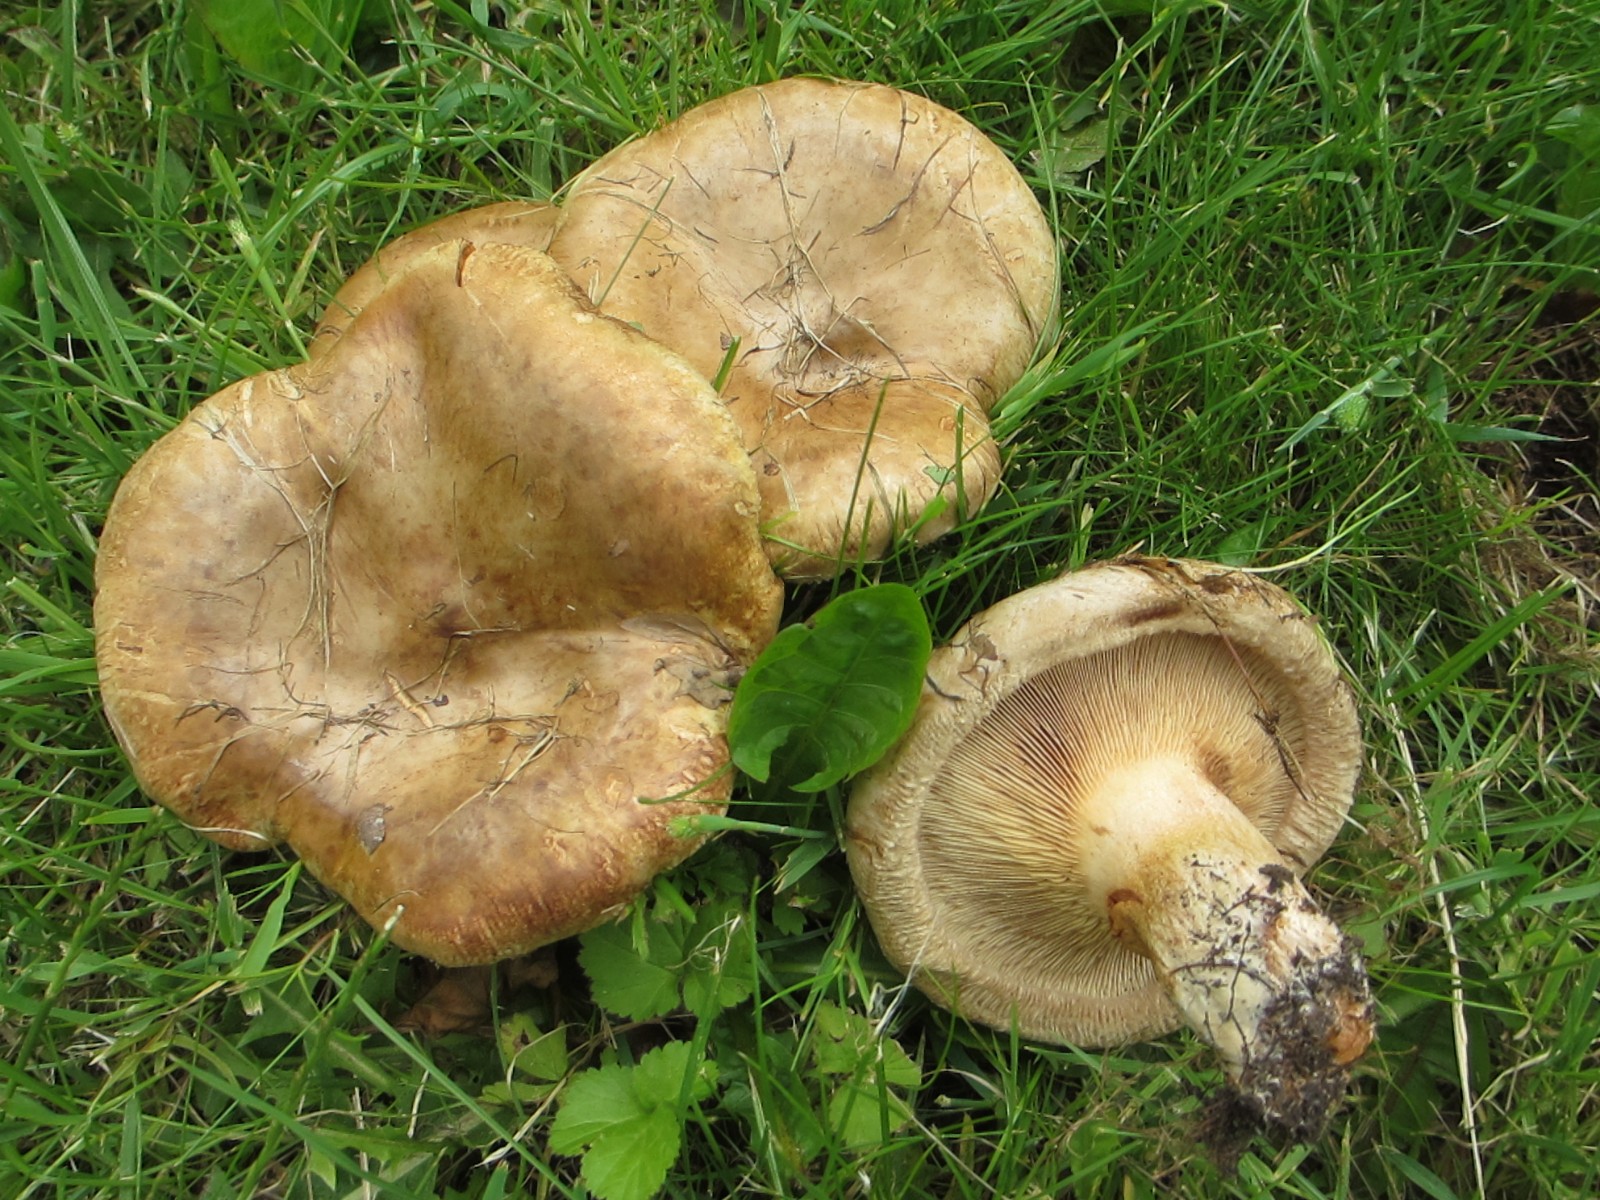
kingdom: Fungi
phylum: Basidiomycota
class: Agaricomycetes
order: Boletales
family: Paxillaceae
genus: Paxillus
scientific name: Paxillus obscurisporus
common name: mahognisporet netbladhat
